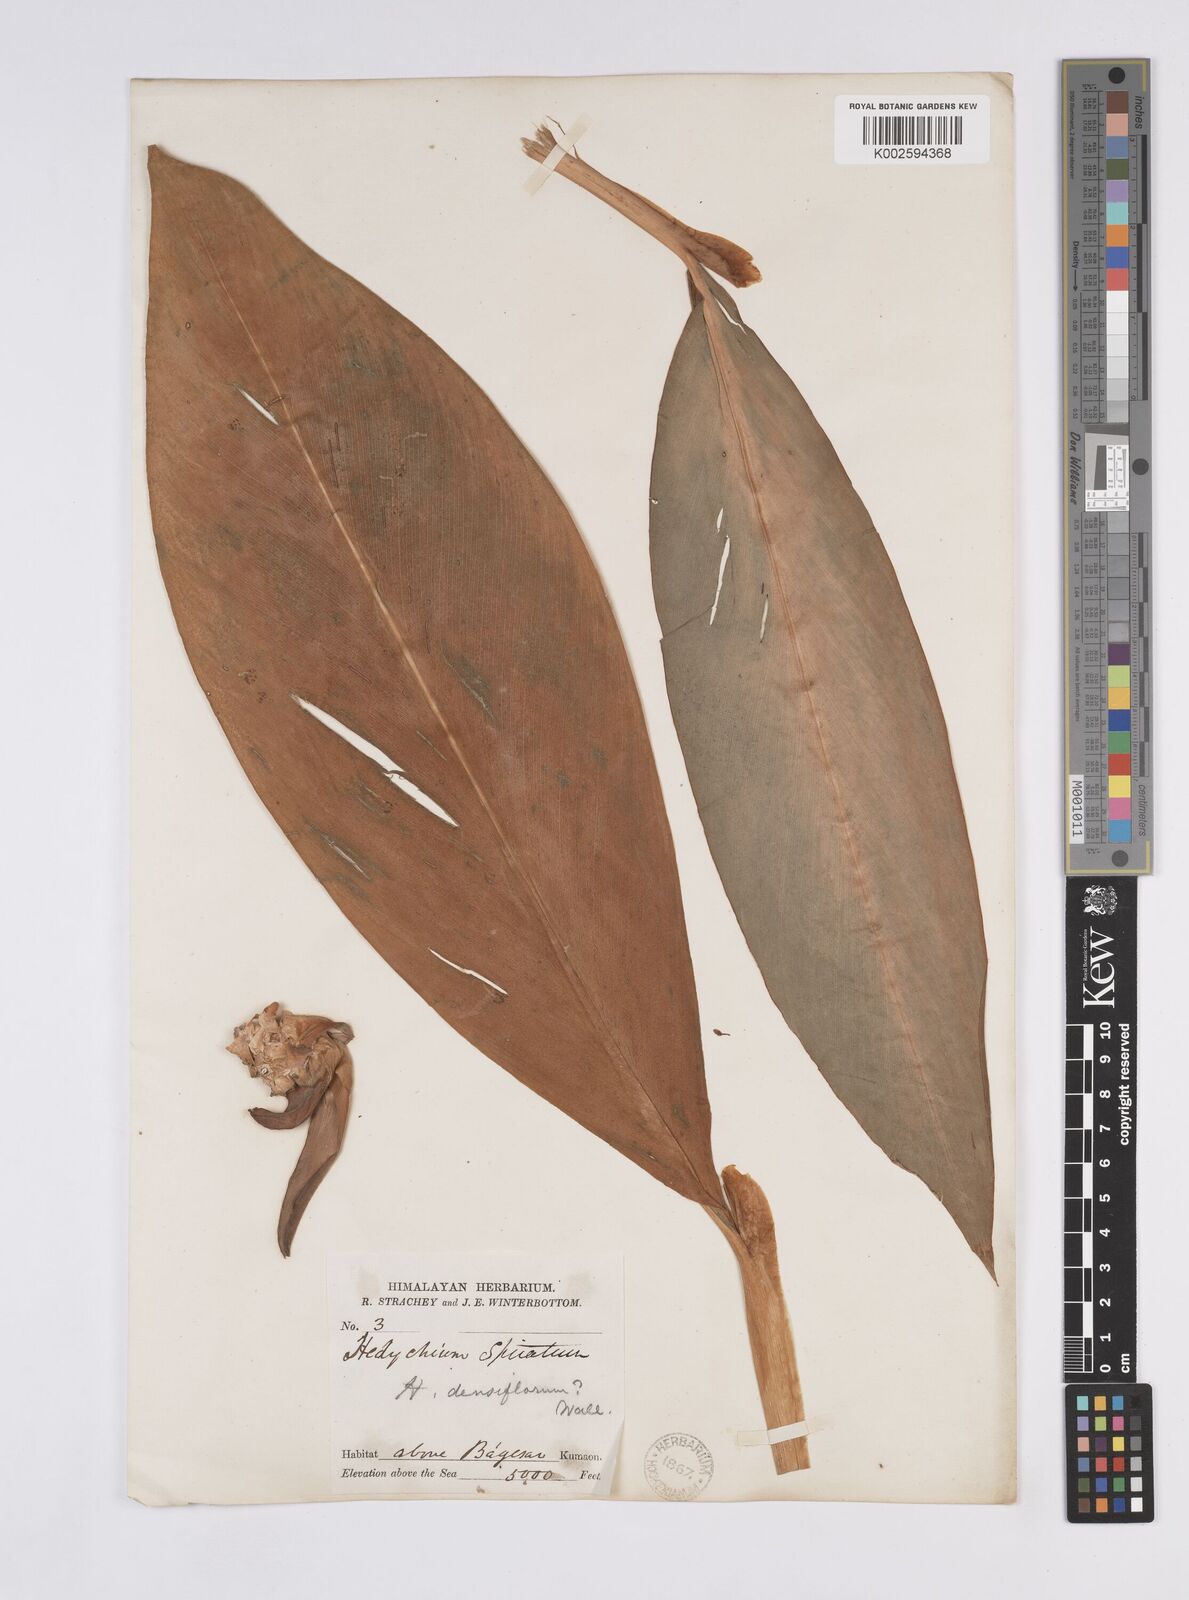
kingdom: Plantae
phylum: Tracheophyta
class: Liliopsida
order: Zingiberales
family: Zingiberaceae
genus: Hedychium
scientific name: Hedychium spicatum
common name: Spiked ginger-lily
